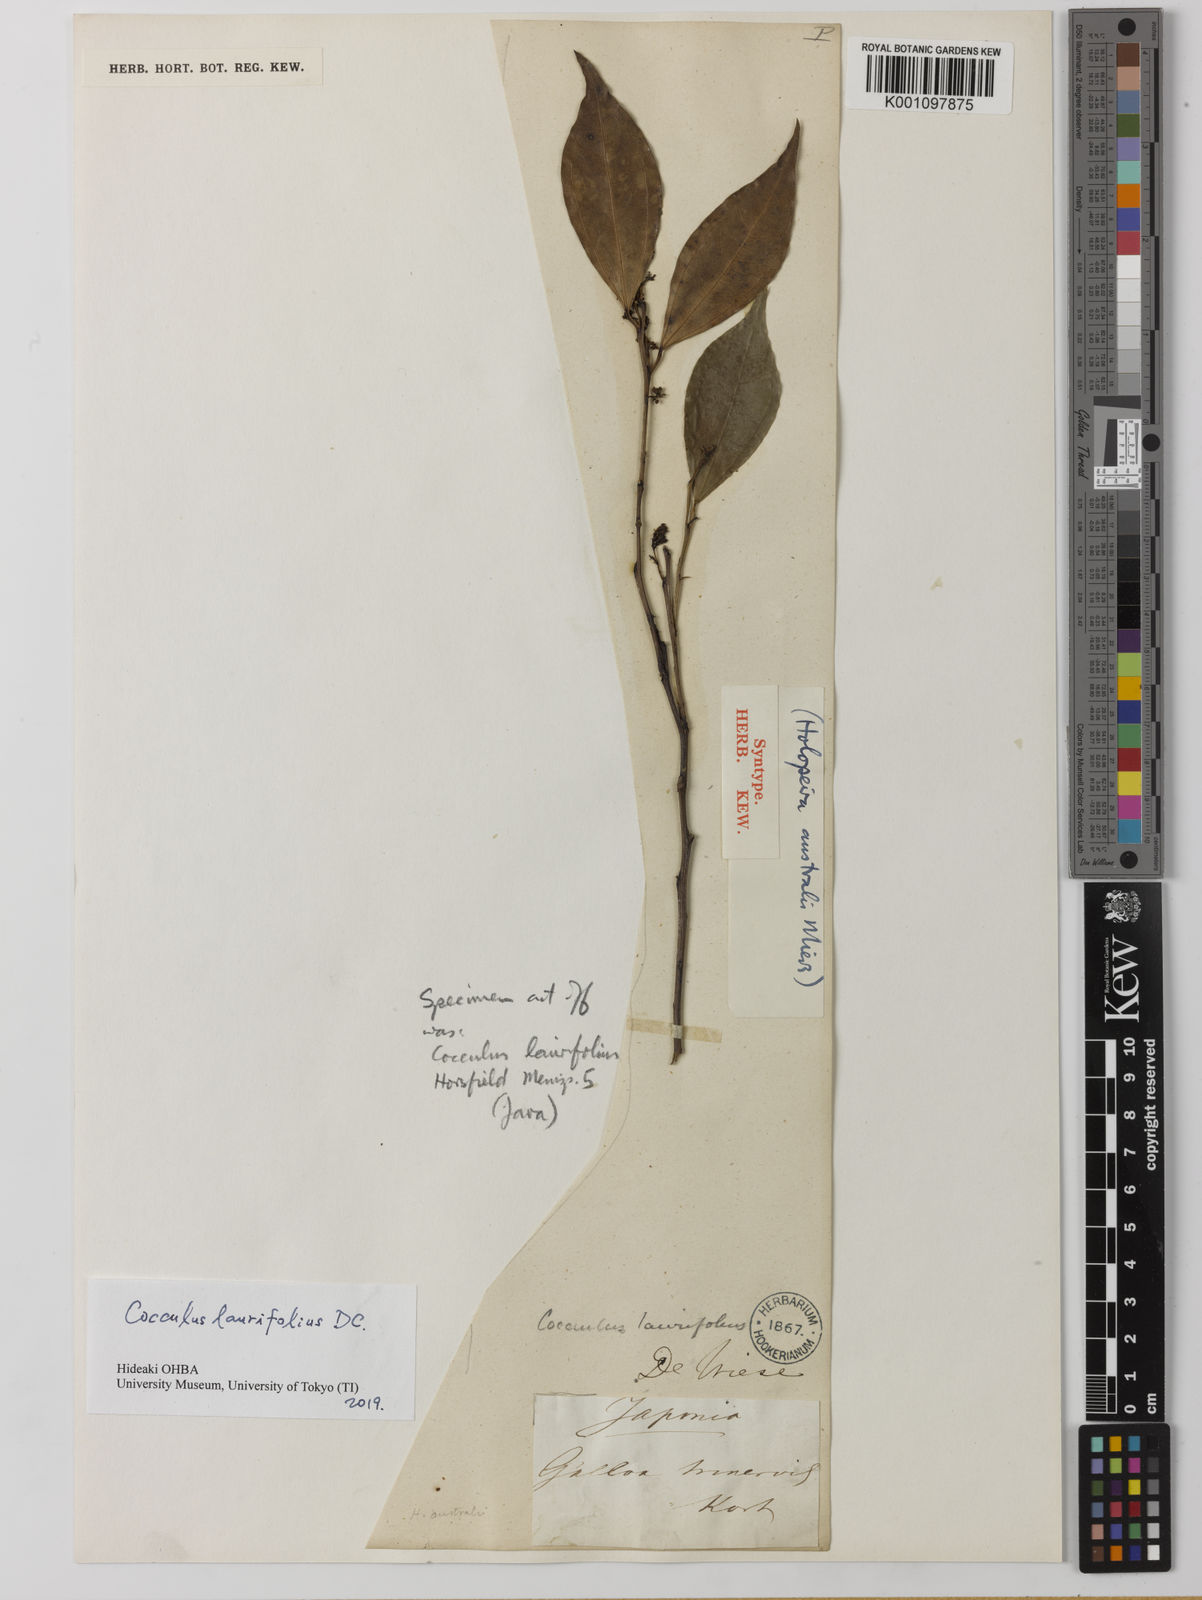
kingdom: Plantae
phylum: Tracheophyta
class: Magnoliopsida
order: Ranunculales
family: Menispermaceae
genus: Cocculus
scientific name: Cocculus laurifolius
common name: Laurel-leaf snailseed
